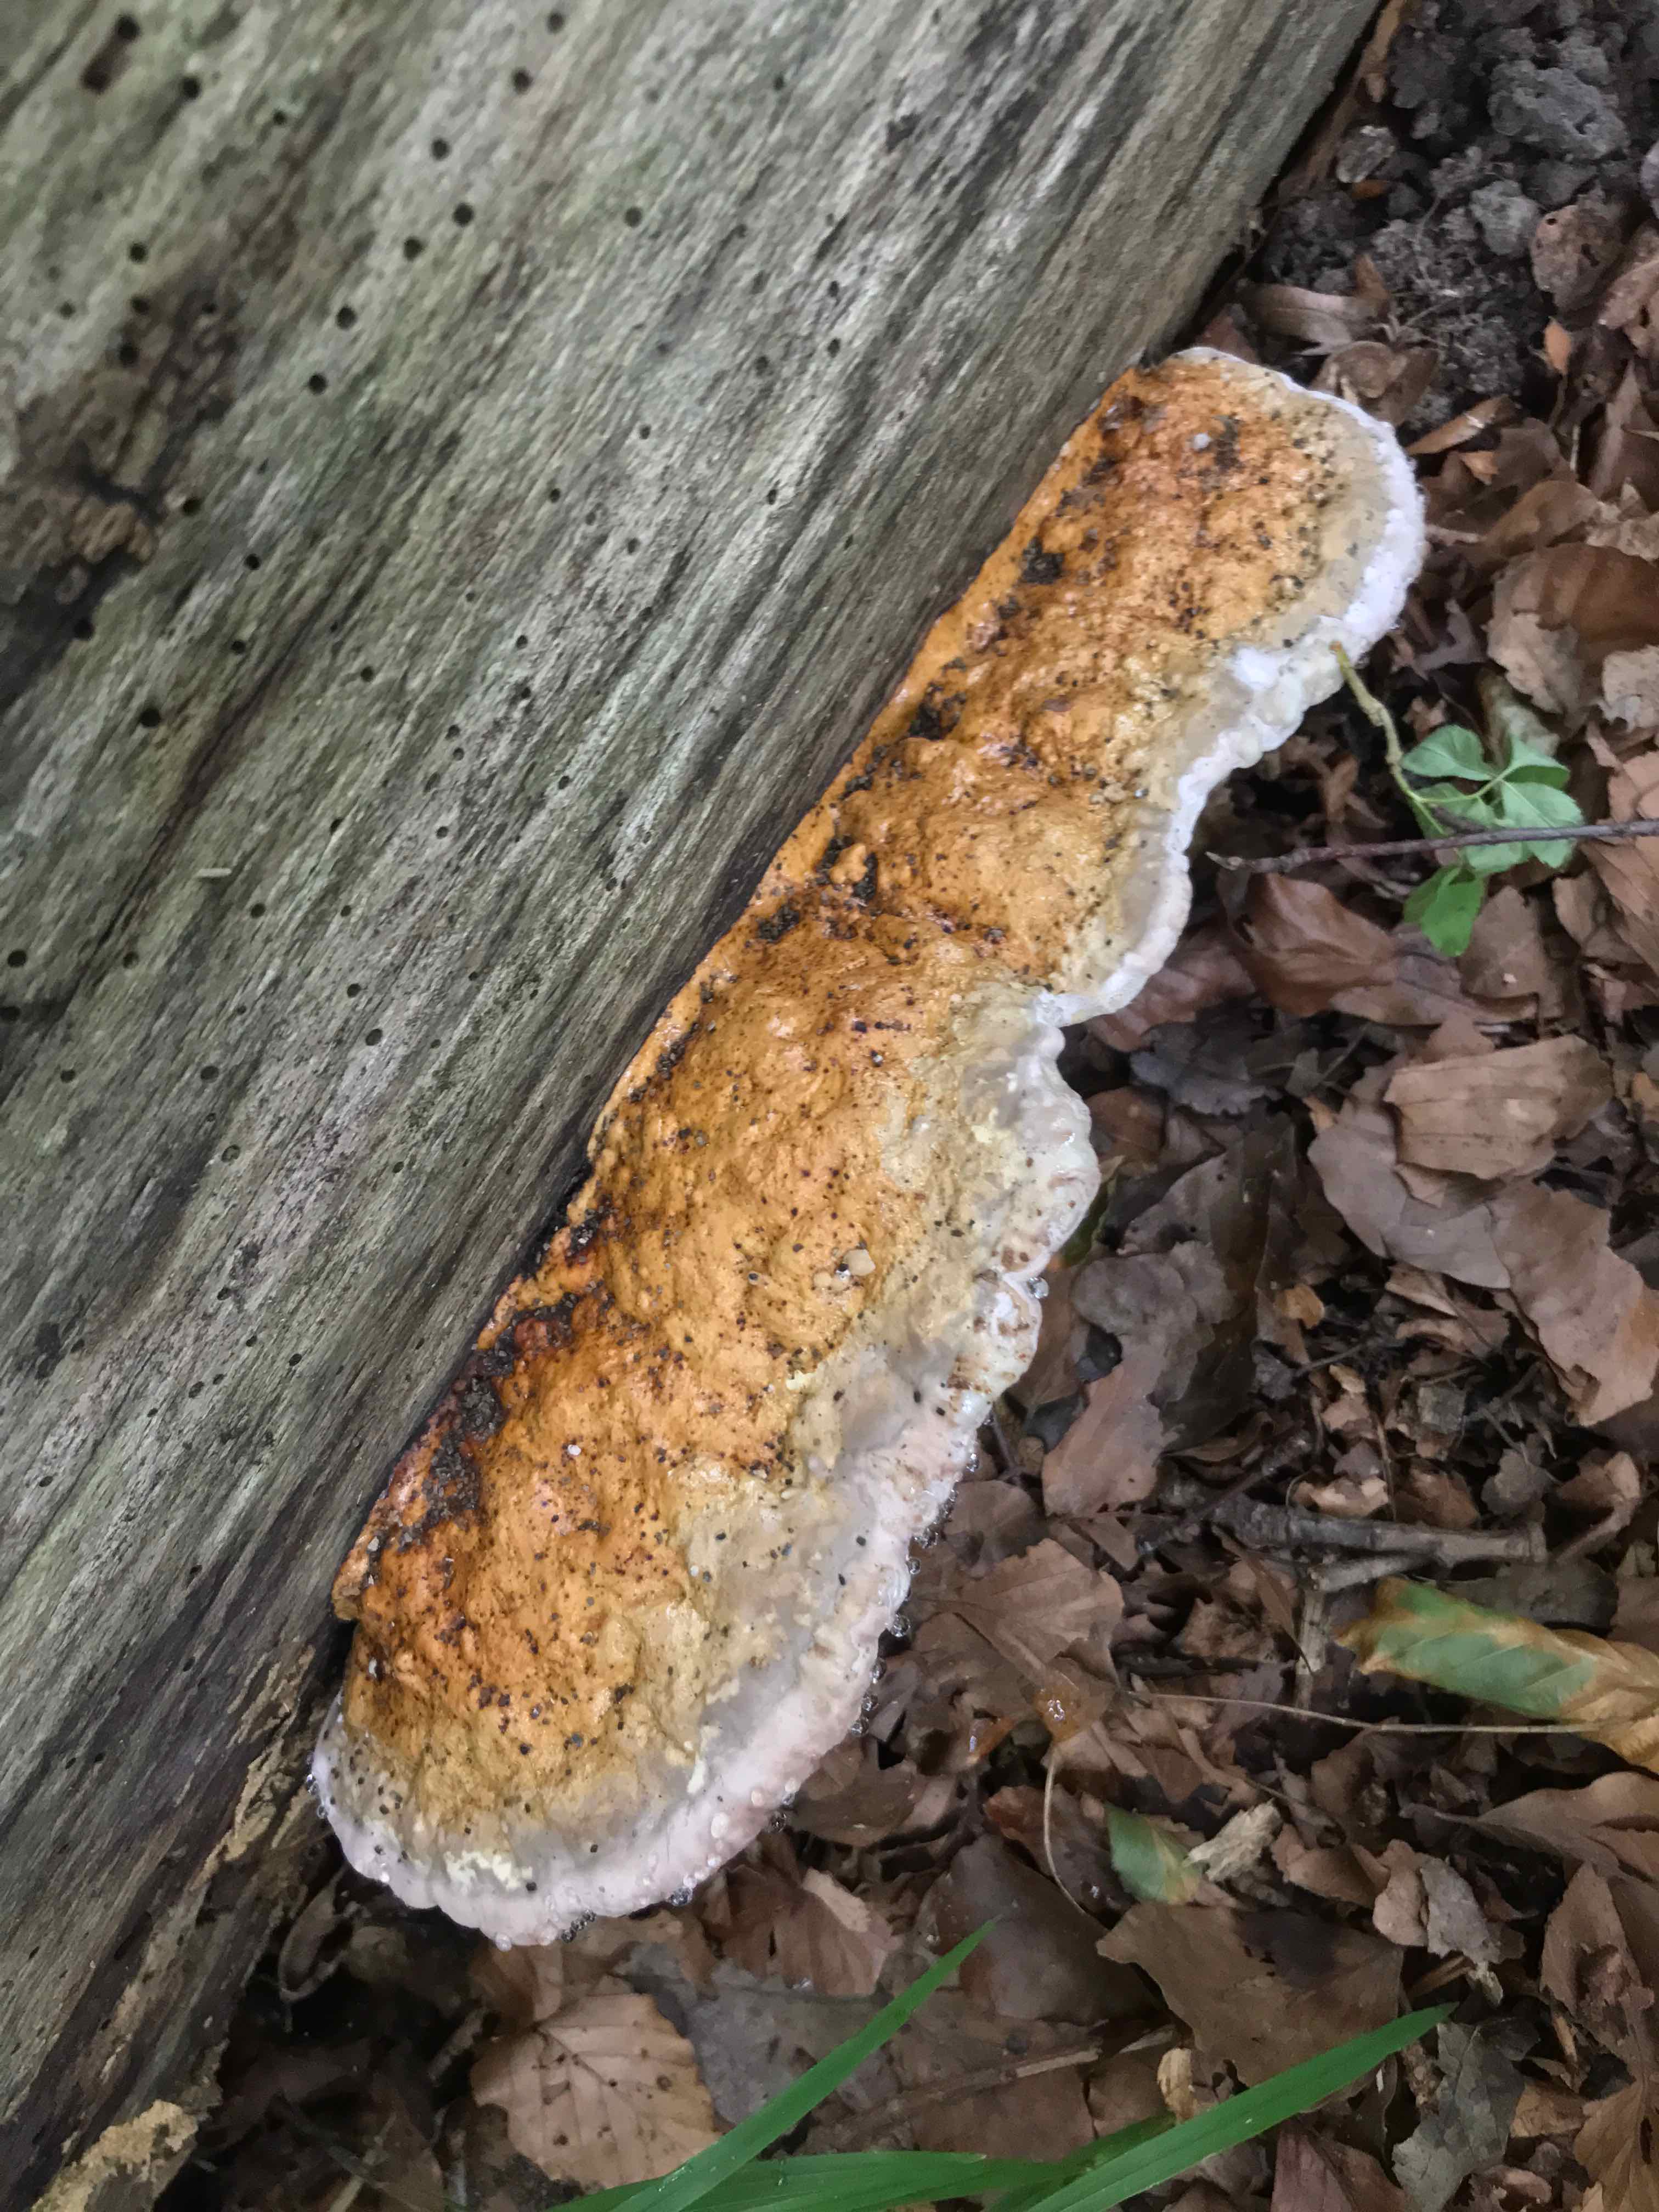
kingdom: Fungi
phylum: Basidiomycota
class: Agaricomycetes
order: Polyporales
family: Fomitopsidaceae
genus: Fomitopsis
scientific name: Fomitopsis pinicola
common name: randbæltet hovporesvamp
